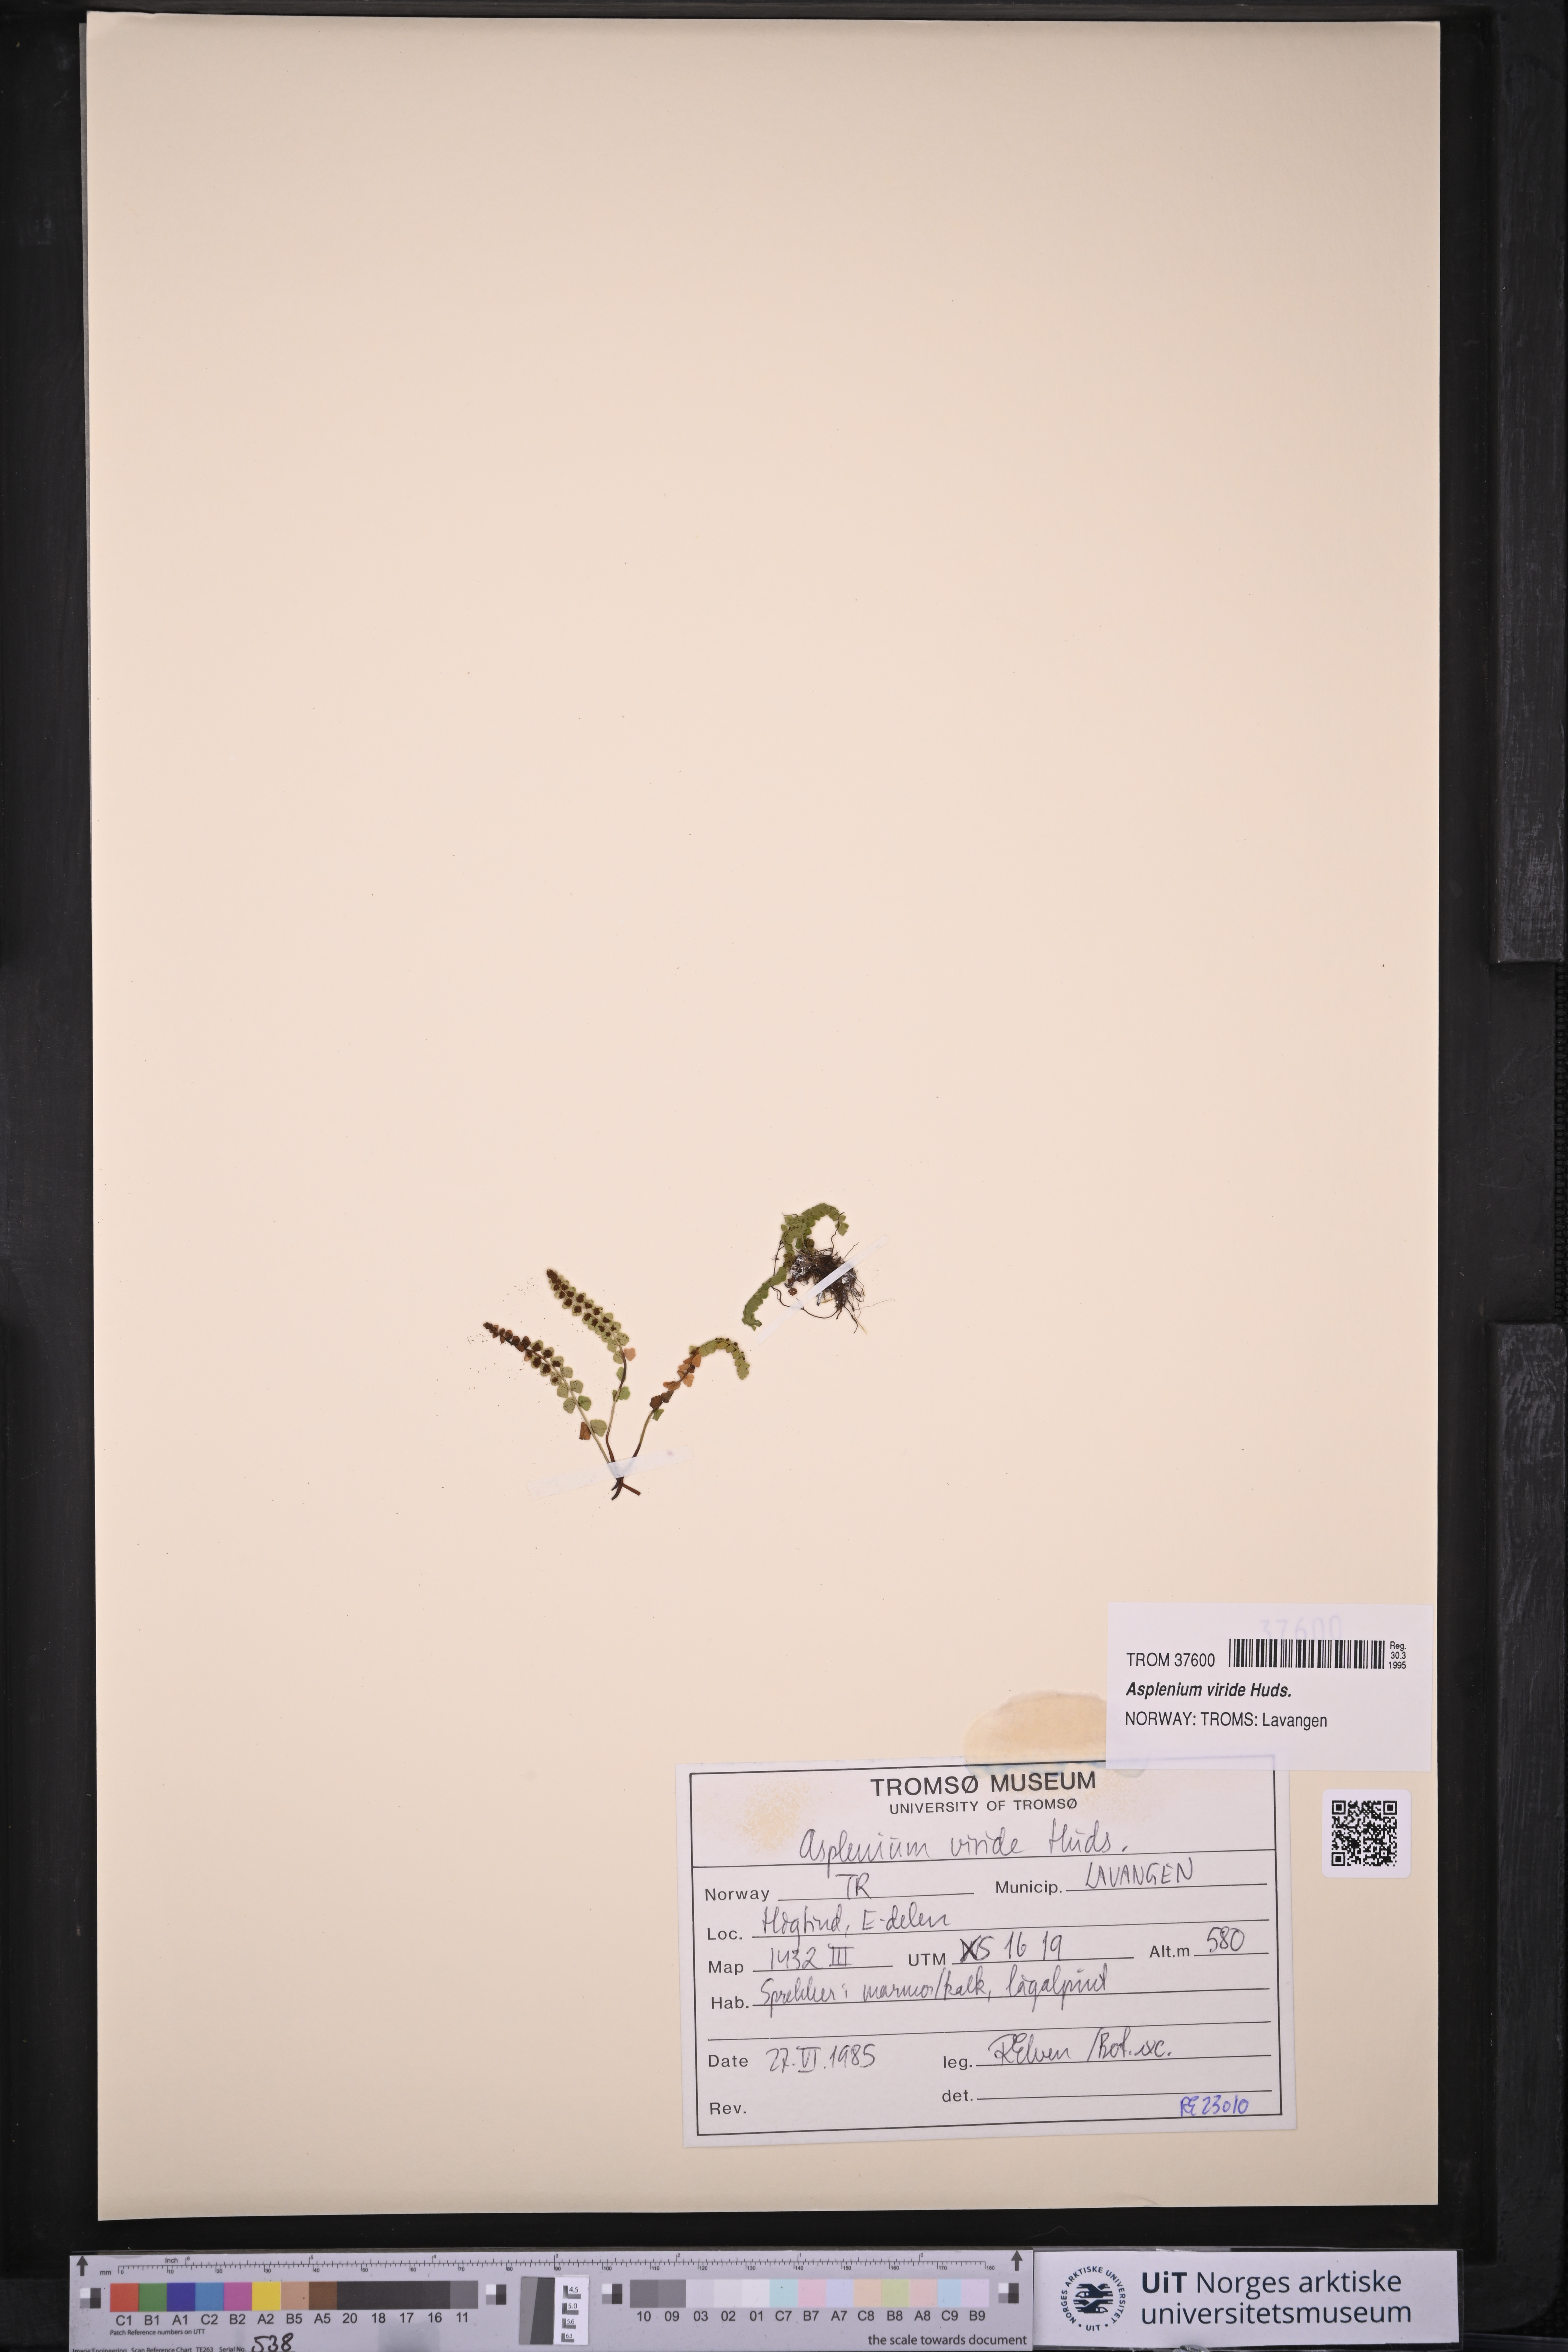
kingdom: Plantae
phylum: Tracheophyta
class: Polypodiopsida
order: Polypodiales
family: Aspleniaceae
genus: Asplenium
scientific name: Asplenium viride
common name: Green spleenwort
